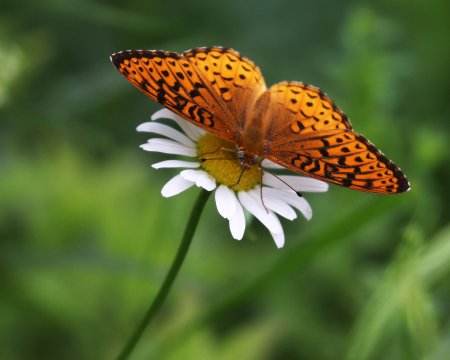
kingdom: Animalia
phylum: Arthropoda
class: Insecta
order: Lepidoptera
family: Nymphalidae
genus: Speyeria
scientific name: Speyeria atlantis
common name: Atlantis Fritillary
